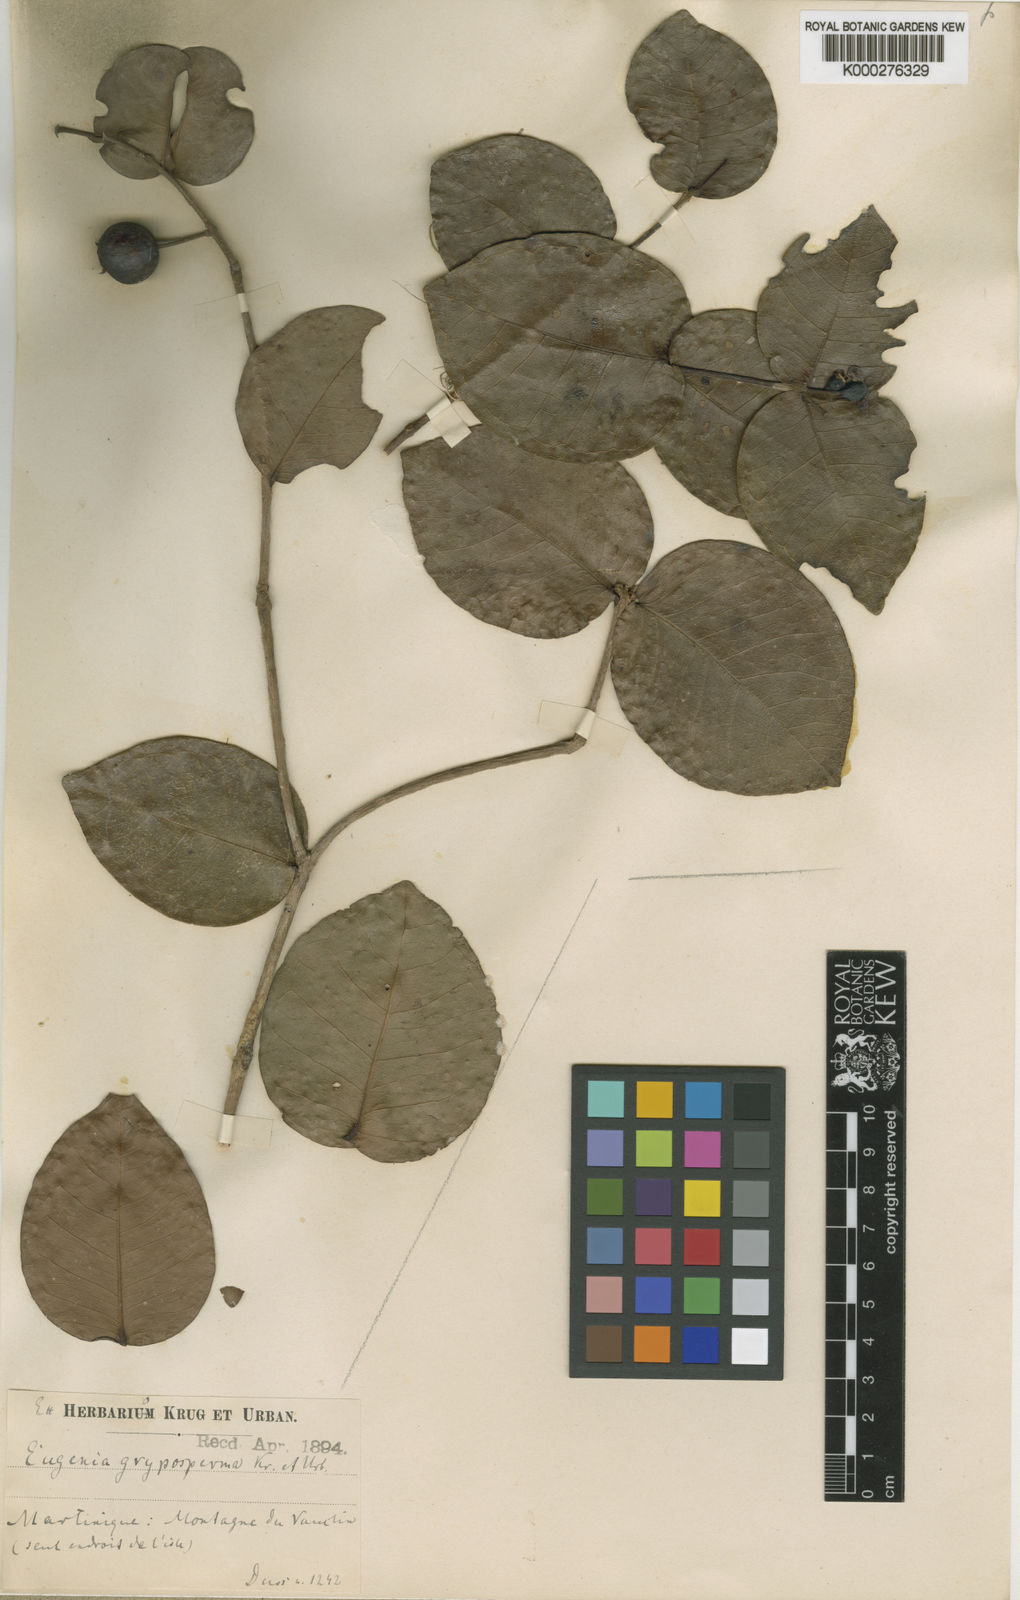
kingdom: Plantae
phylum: Tracheophyta
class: Magnoliopsida
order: Myrtales
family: Myrtaceae
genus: Eugenia
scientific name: Eugenia gryposperma
